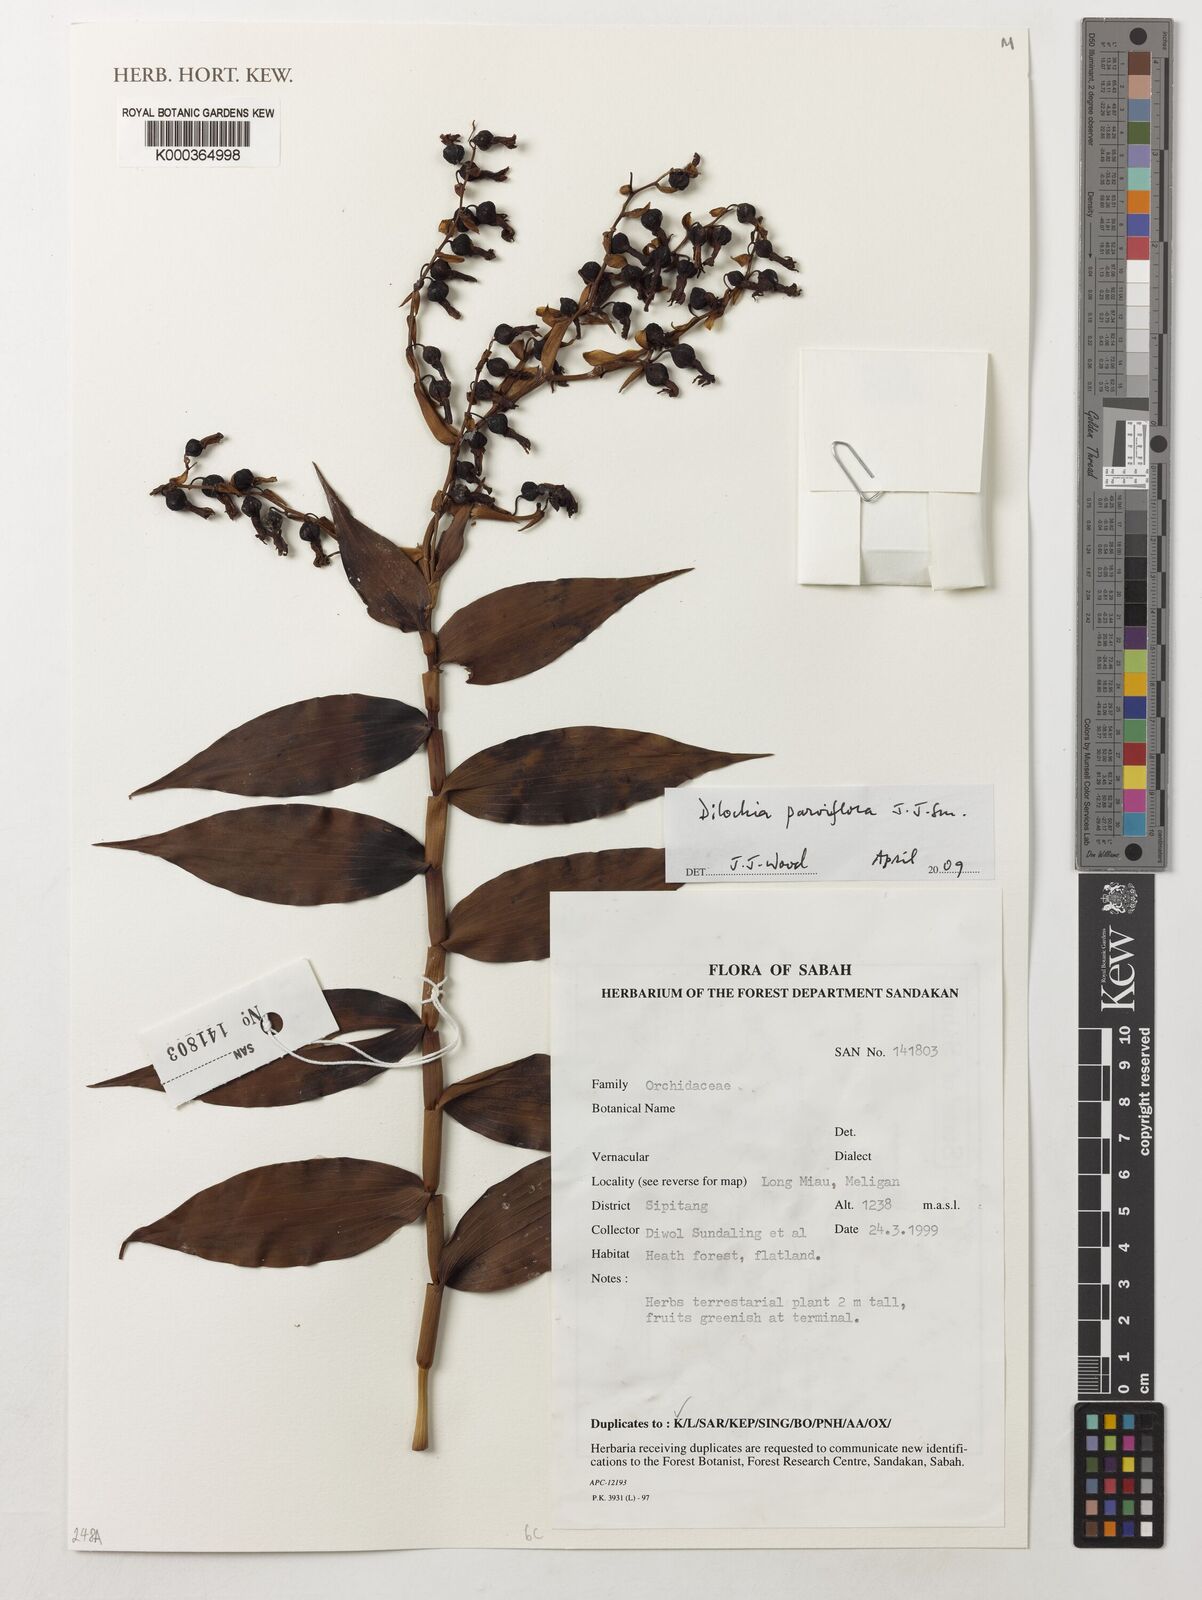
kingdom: Plantae
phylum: Tracheophyta
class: Liliopsida
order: Asparagales
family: Orchidaceae
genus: Dilochia
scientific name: Dilochia parviflora
